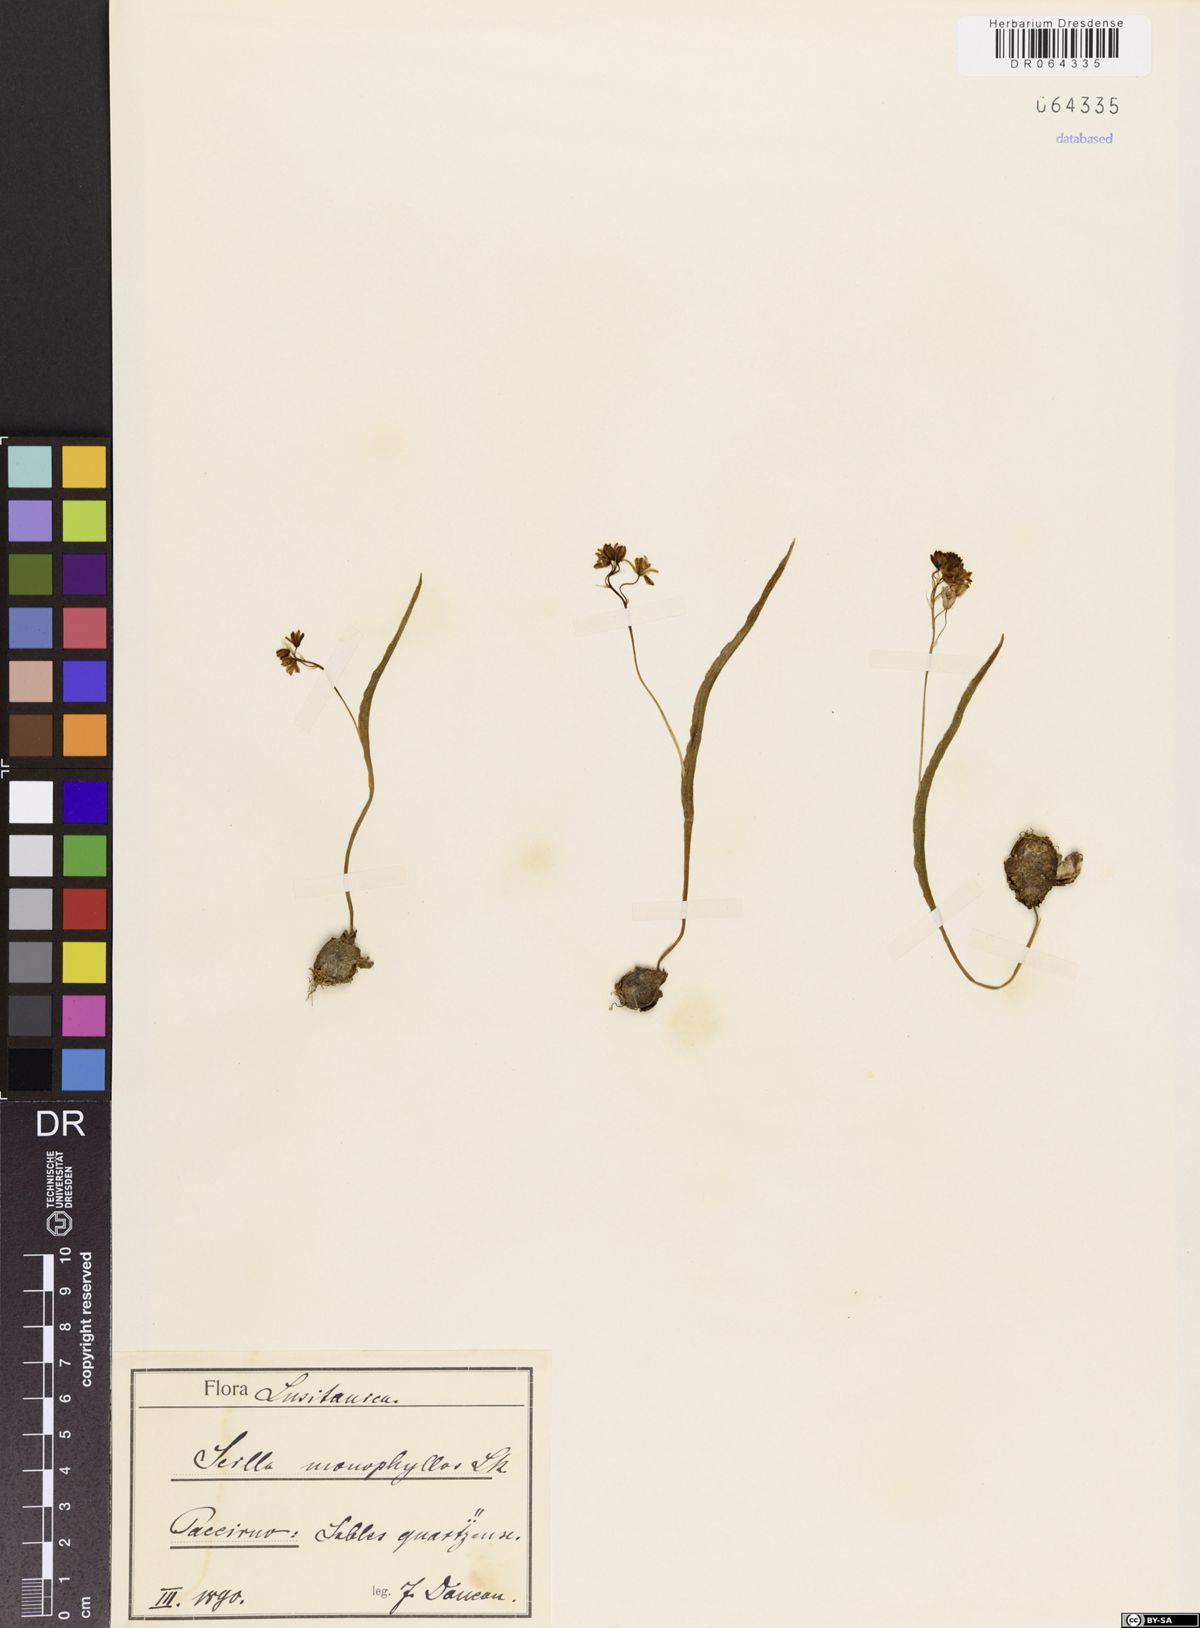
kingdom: Plantae
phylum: Tracheophyta
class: Liliopsida
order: Asparagales
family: Asparagaceae
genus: Scilla
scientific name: Scilla monophyllos
